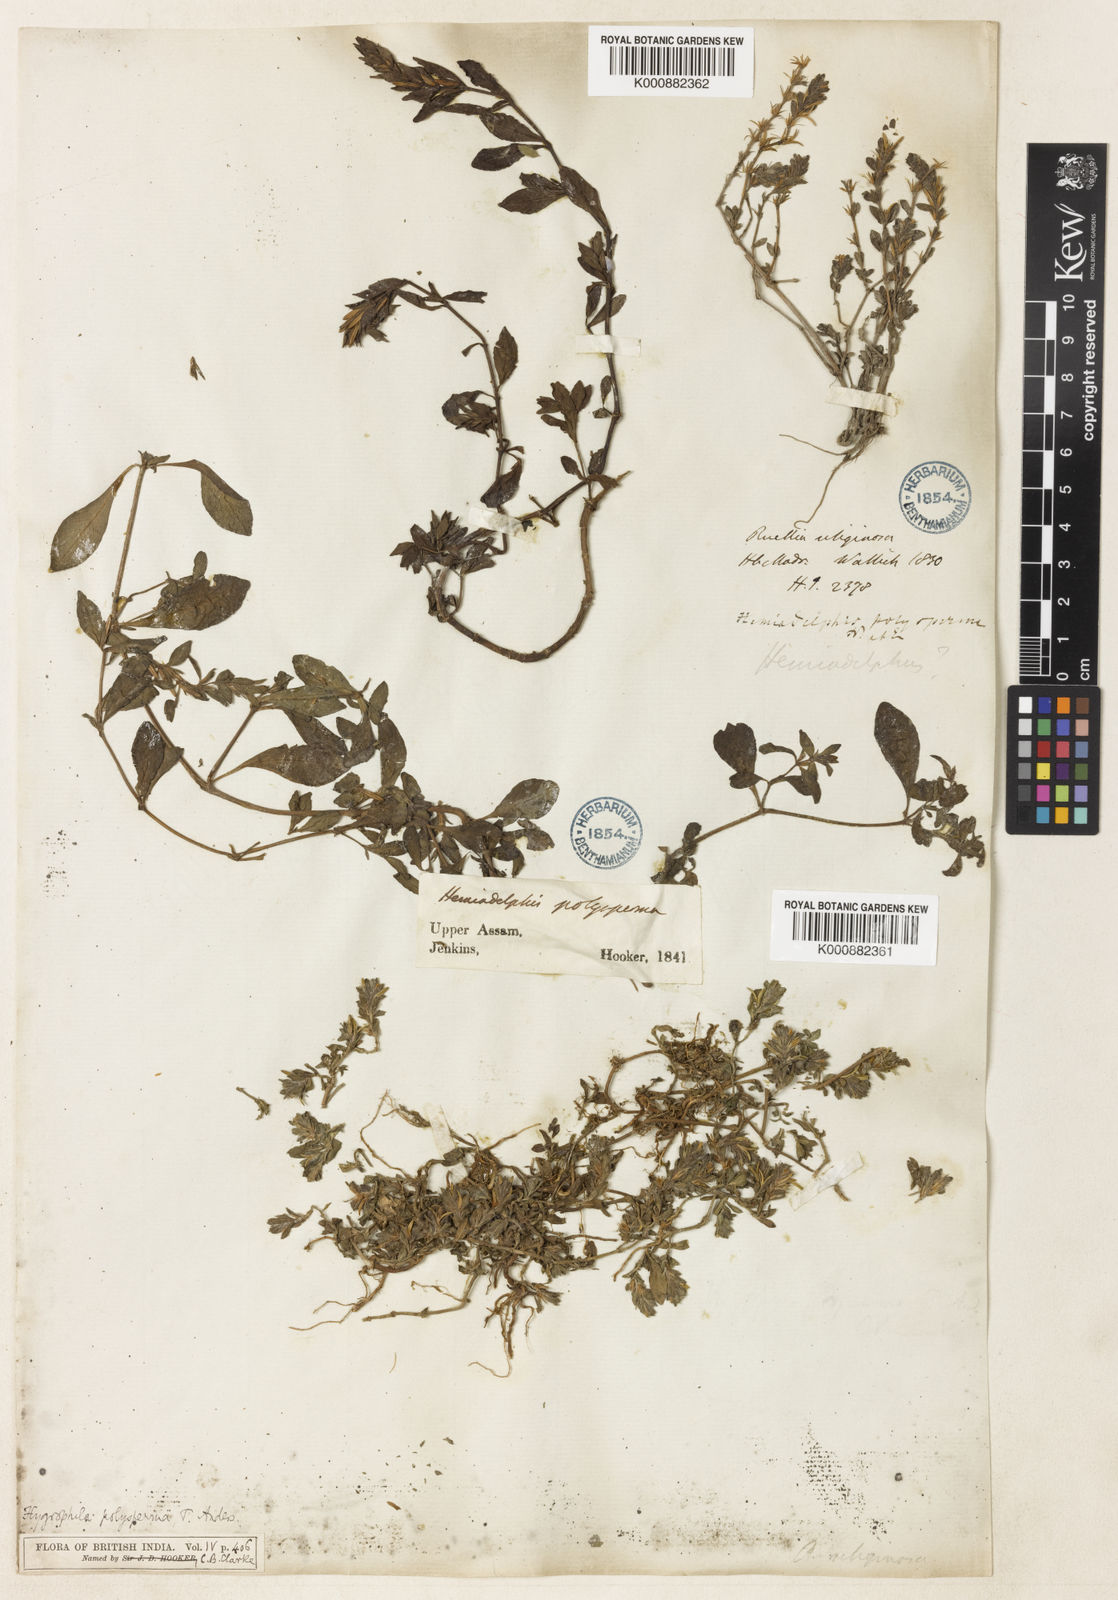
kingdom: Plantae
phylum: Tracheophyta
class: Magnoliopsida
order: Lamiales
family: Acanthaceae
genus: Hygrophila
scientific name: Hygrophila polysperma
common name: Indian swampweed
